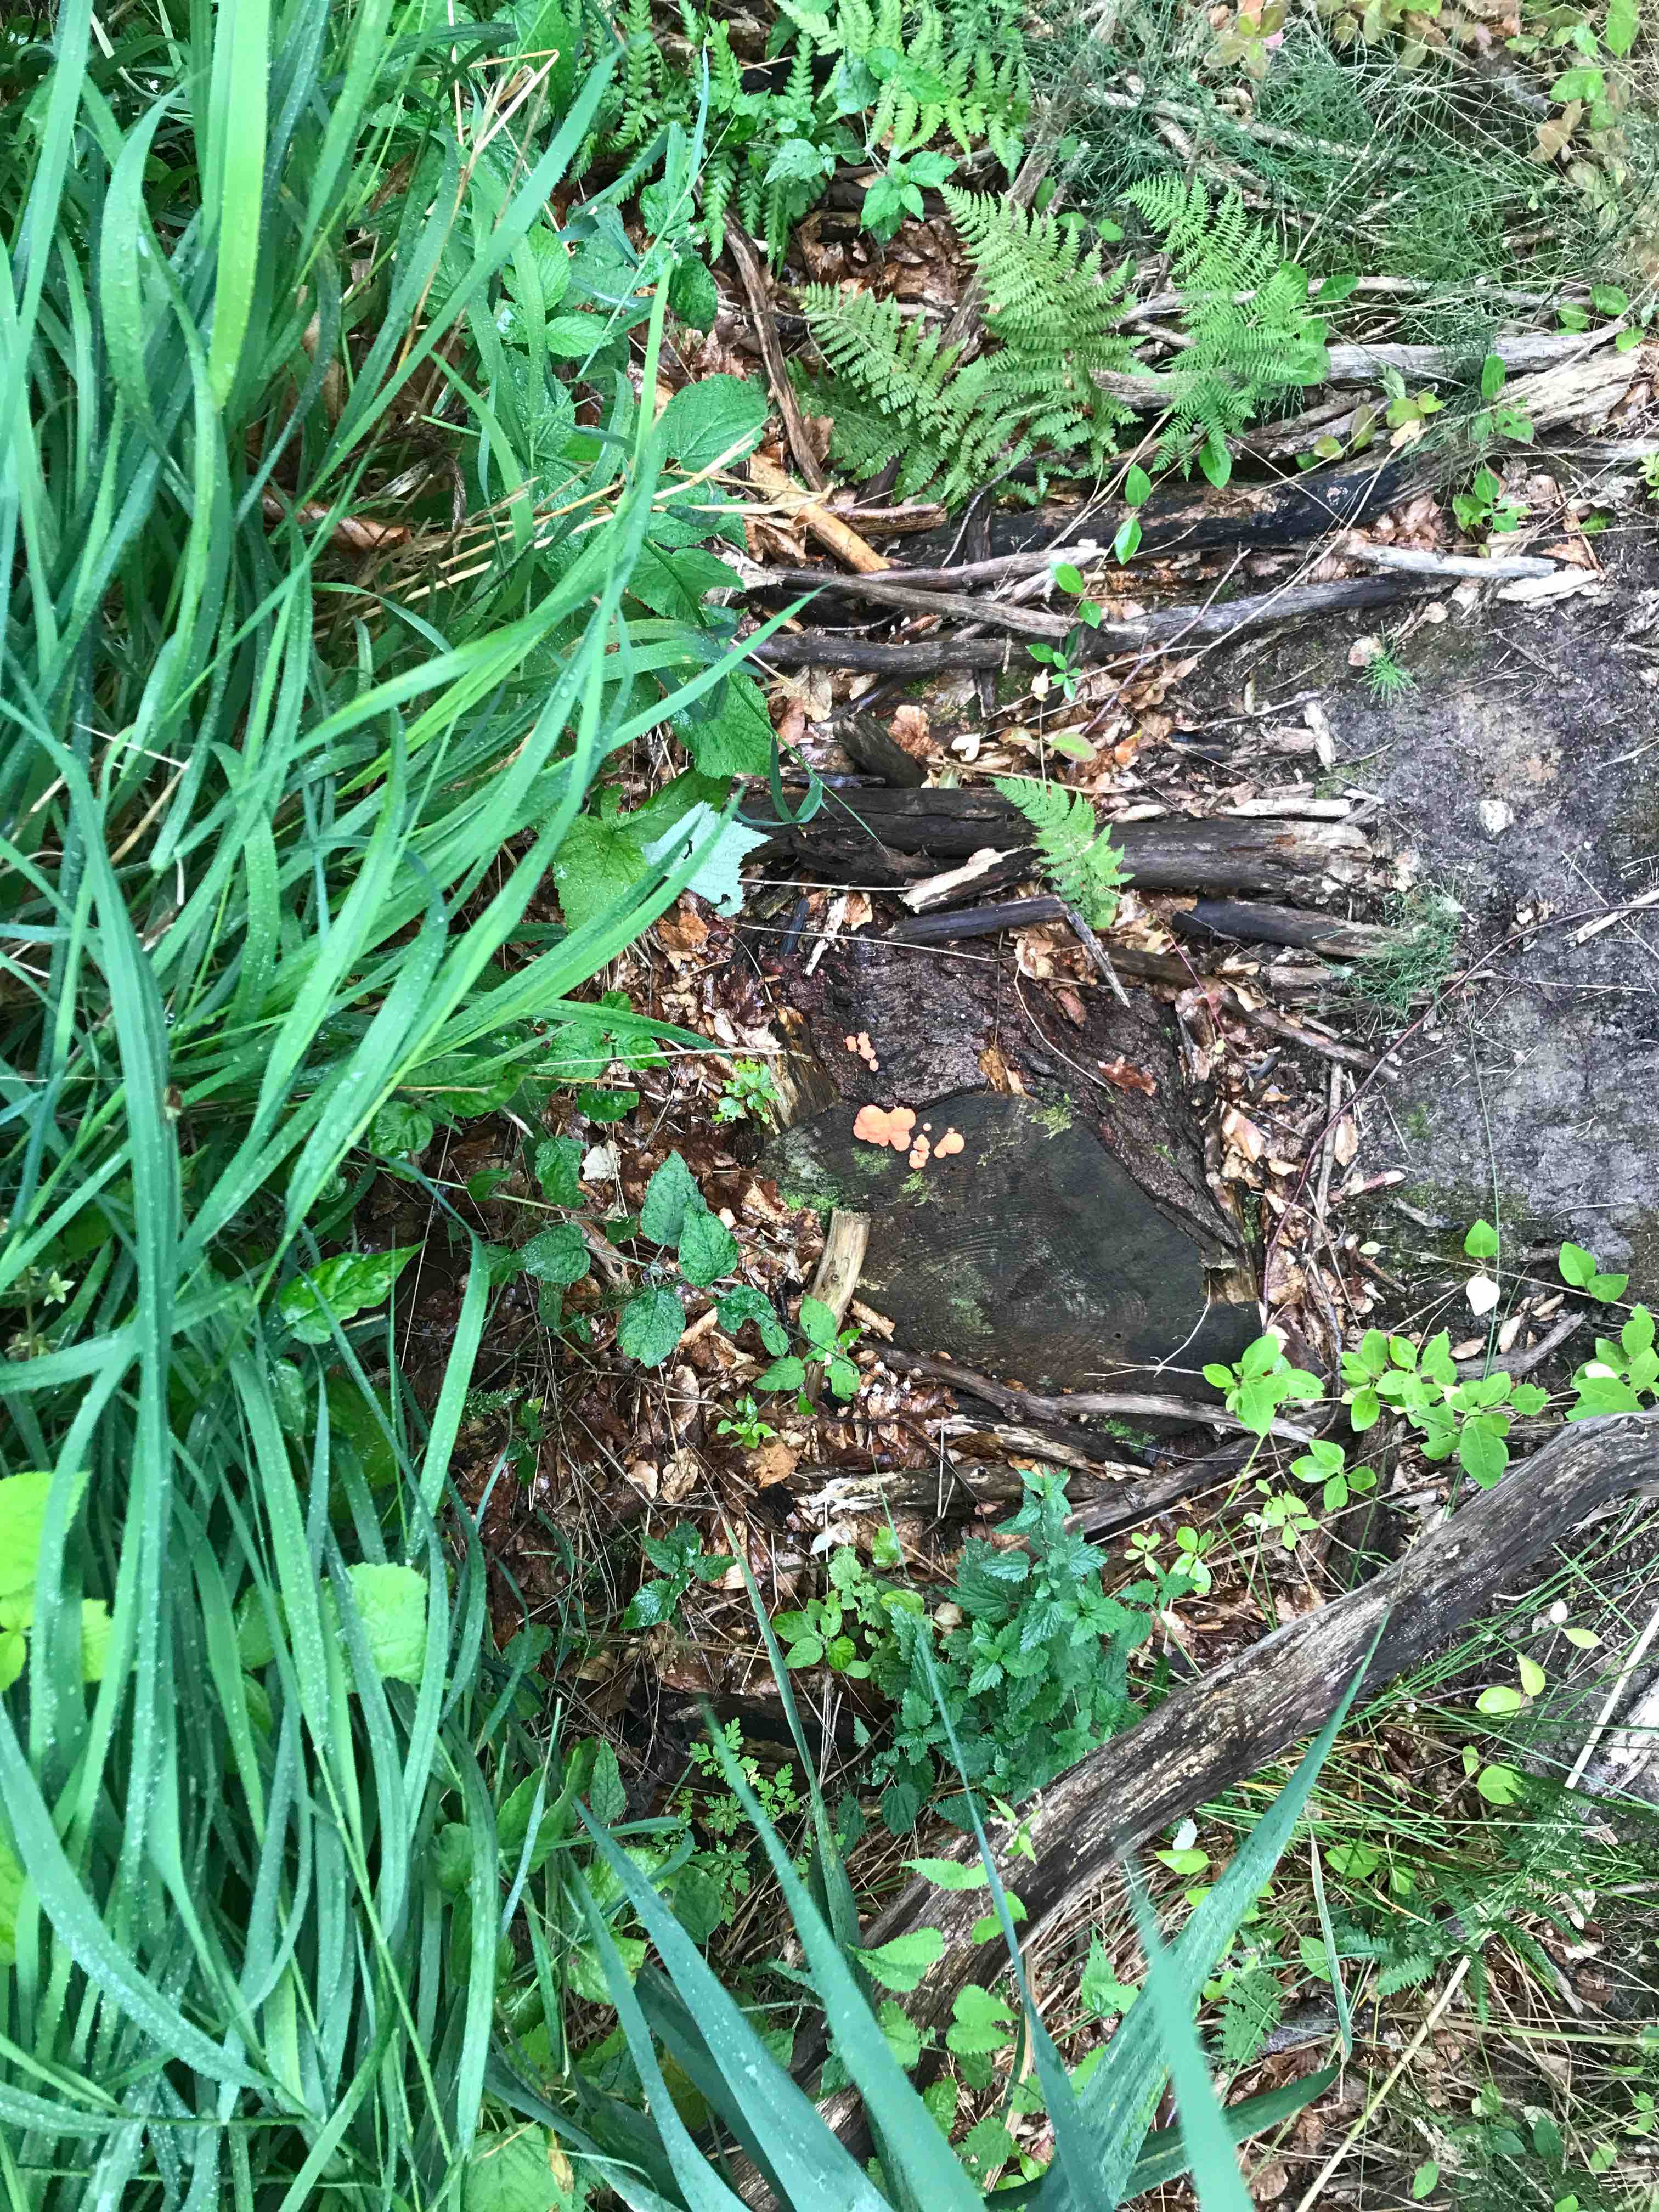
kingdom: Protozoa
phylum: Mycetozoa
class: Myxomycetes
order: Cribrariales
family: Tubiferaceae
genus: Tubifera
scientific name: Tubifera ferruginosa
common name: kanel-støvrør
